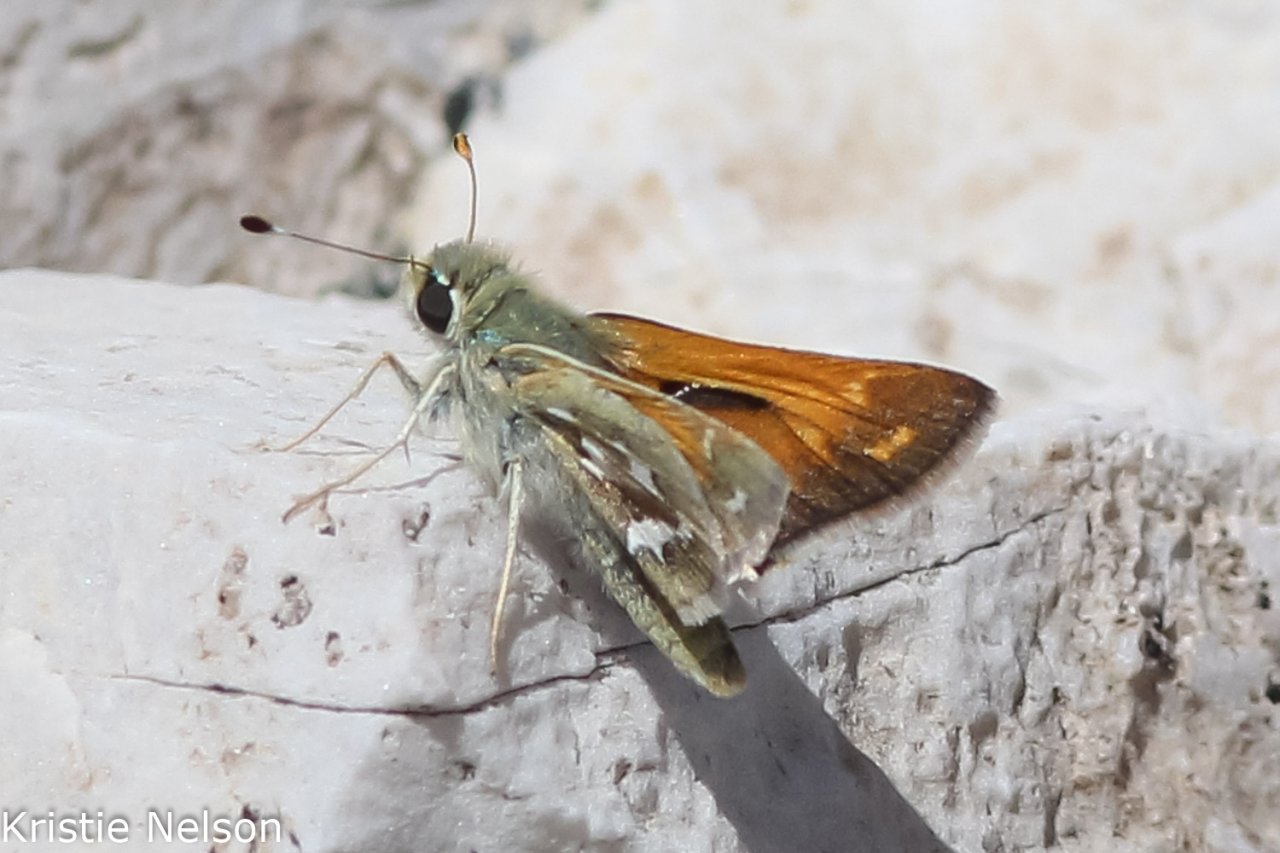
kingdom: Animalia
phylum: Arthropoda
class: Insecta
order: Lepidoptera
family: Hesperiidae
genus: Hesperia
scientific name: Hesperia comma
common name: Western Branded Skipper
